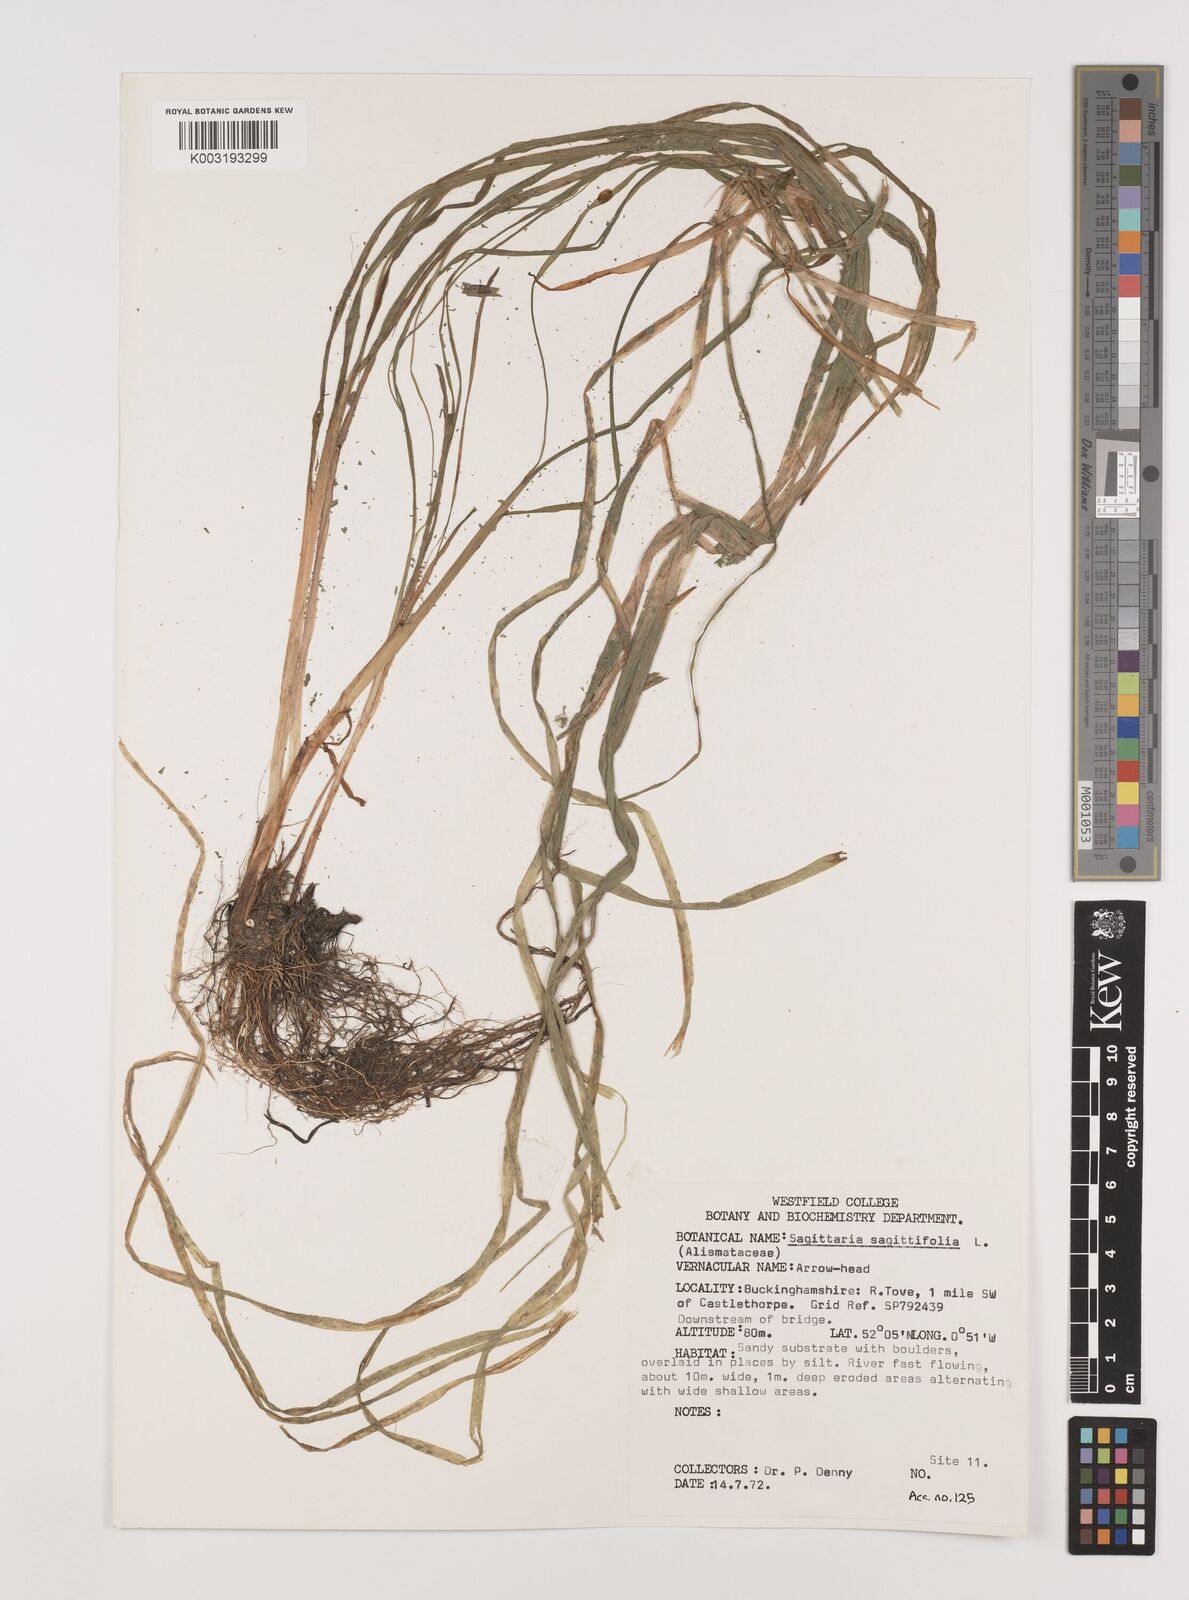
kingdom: Plantae
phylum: Tracheophyta
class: Liliopsida
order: Alismatales
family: Alismataceae
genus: Sagittaria
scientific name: Sagittaria sagittifolia
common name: Arrowhead
